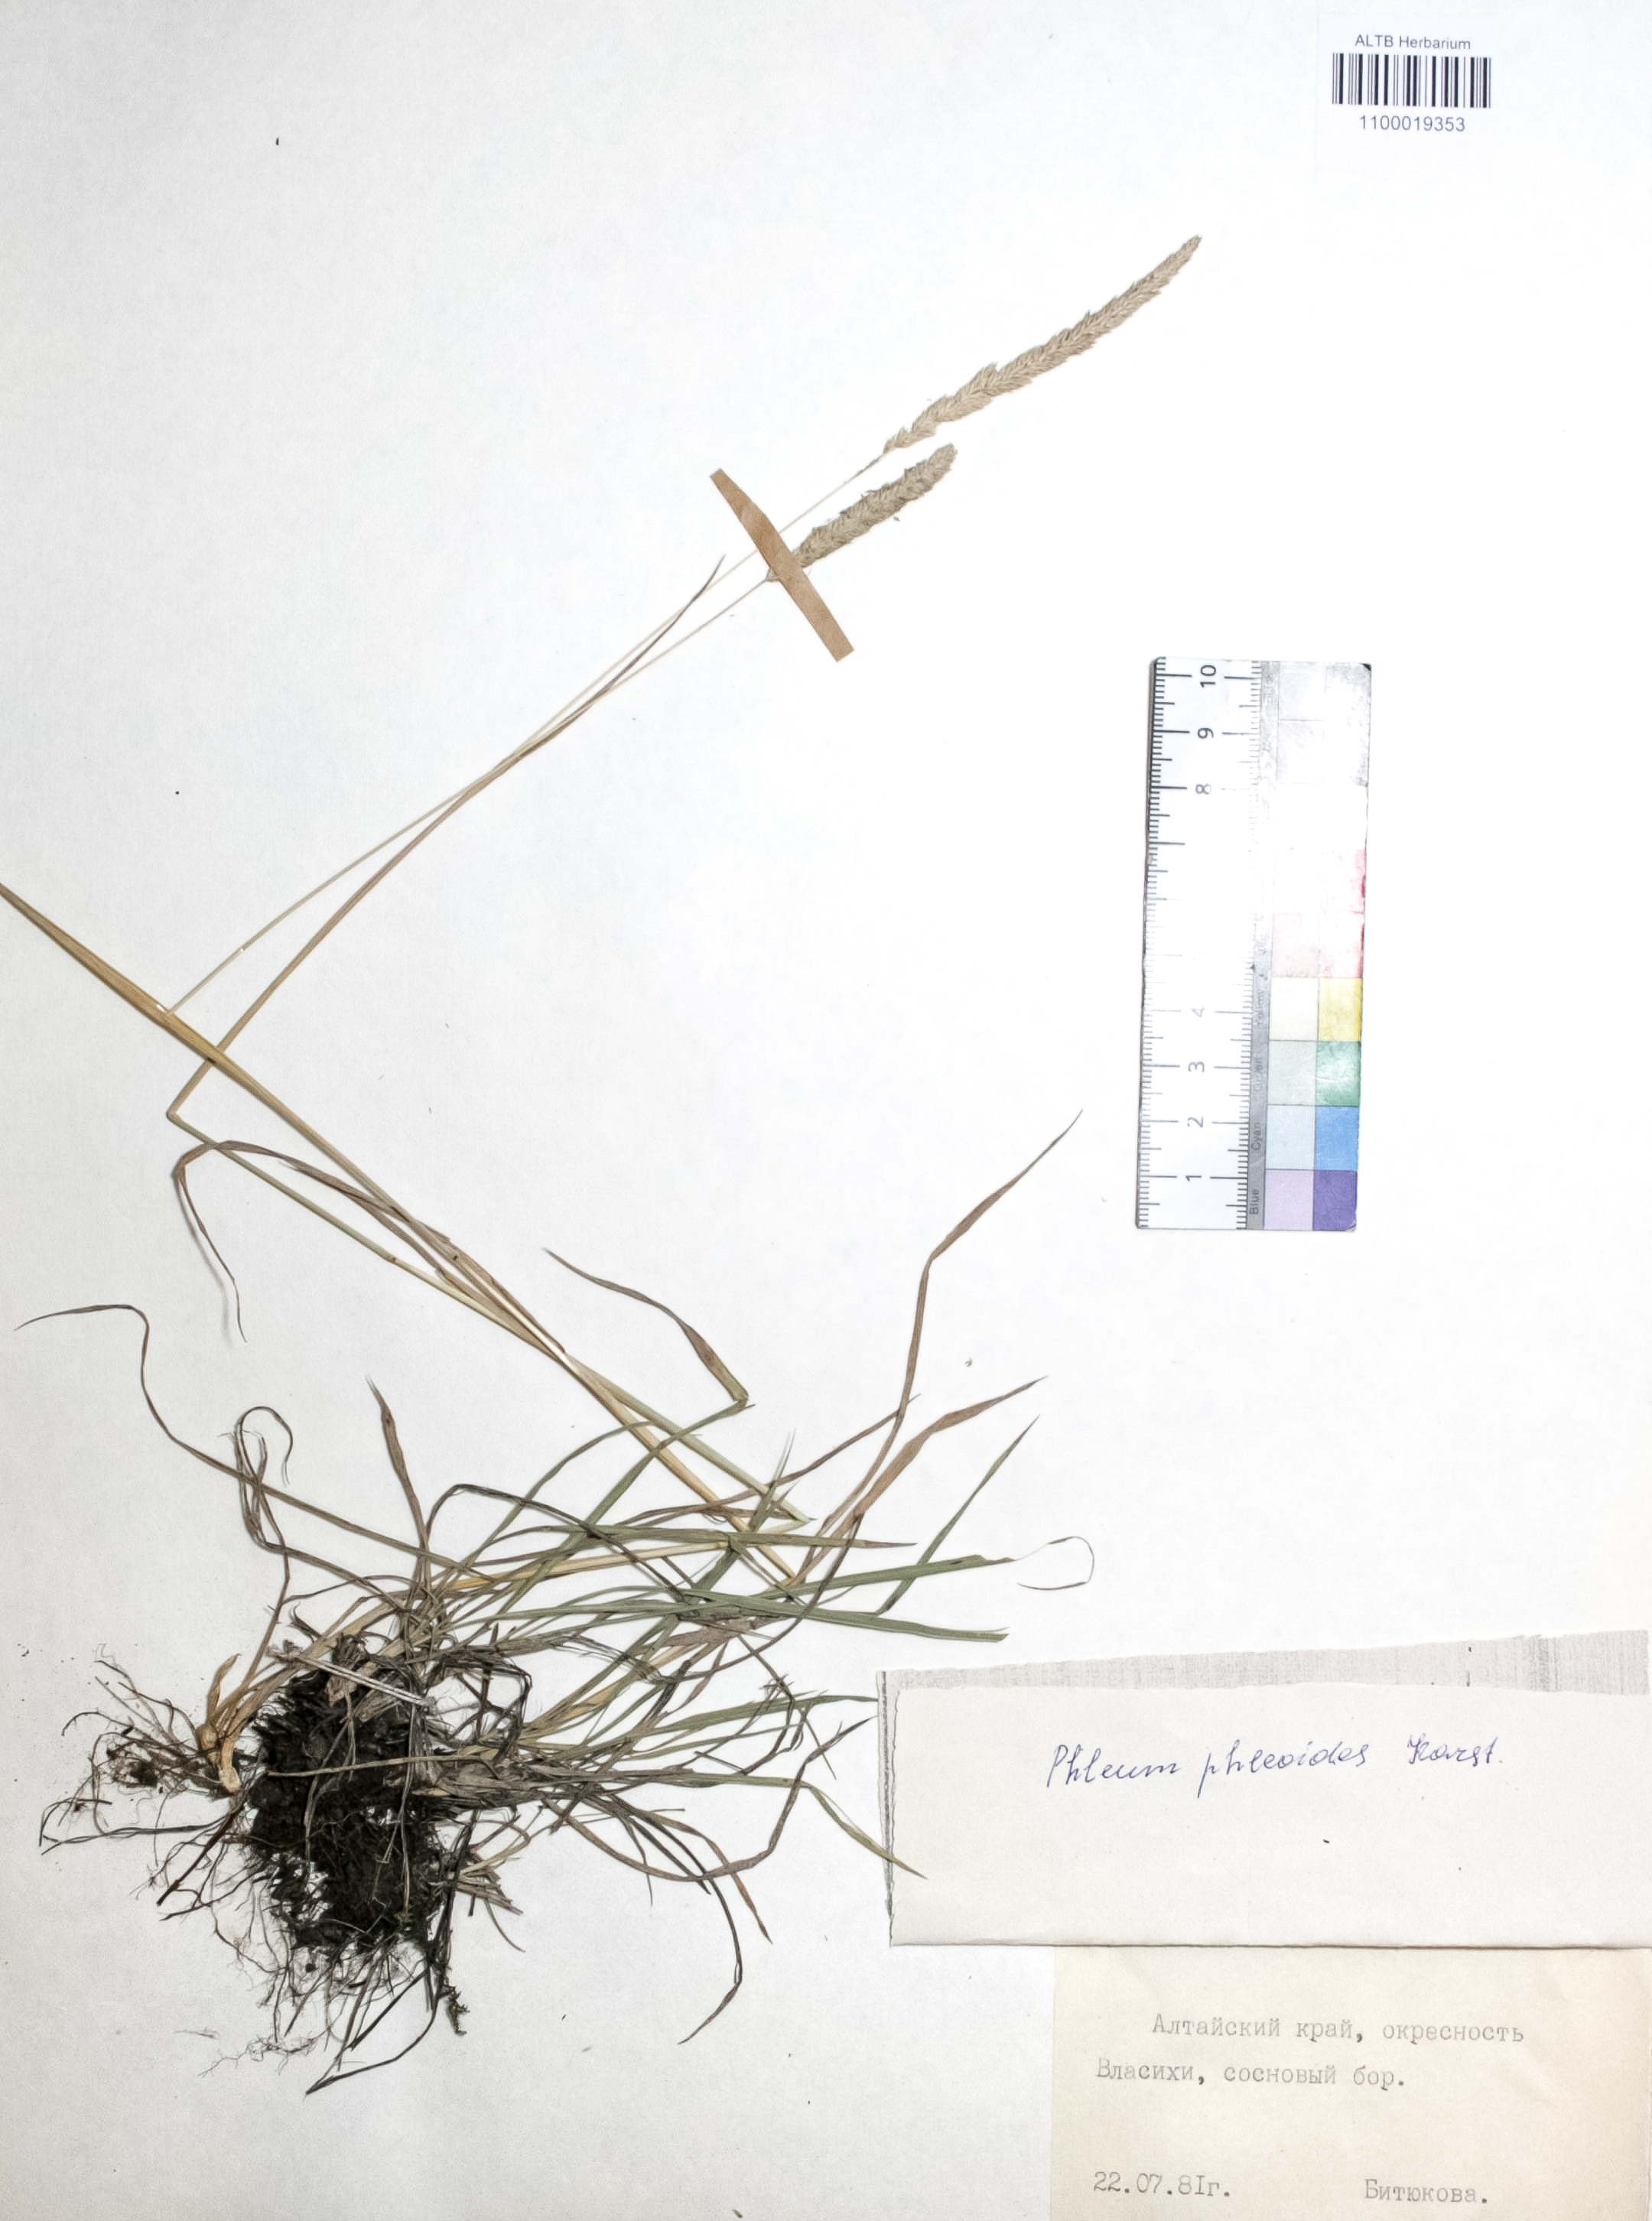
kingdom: Plantae
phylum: Tracheophyta
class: Liliopsida
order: Poales
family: Poaceae
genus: Phleum
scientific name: Phleum phleoides
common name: Purple-stem cat's-tail
